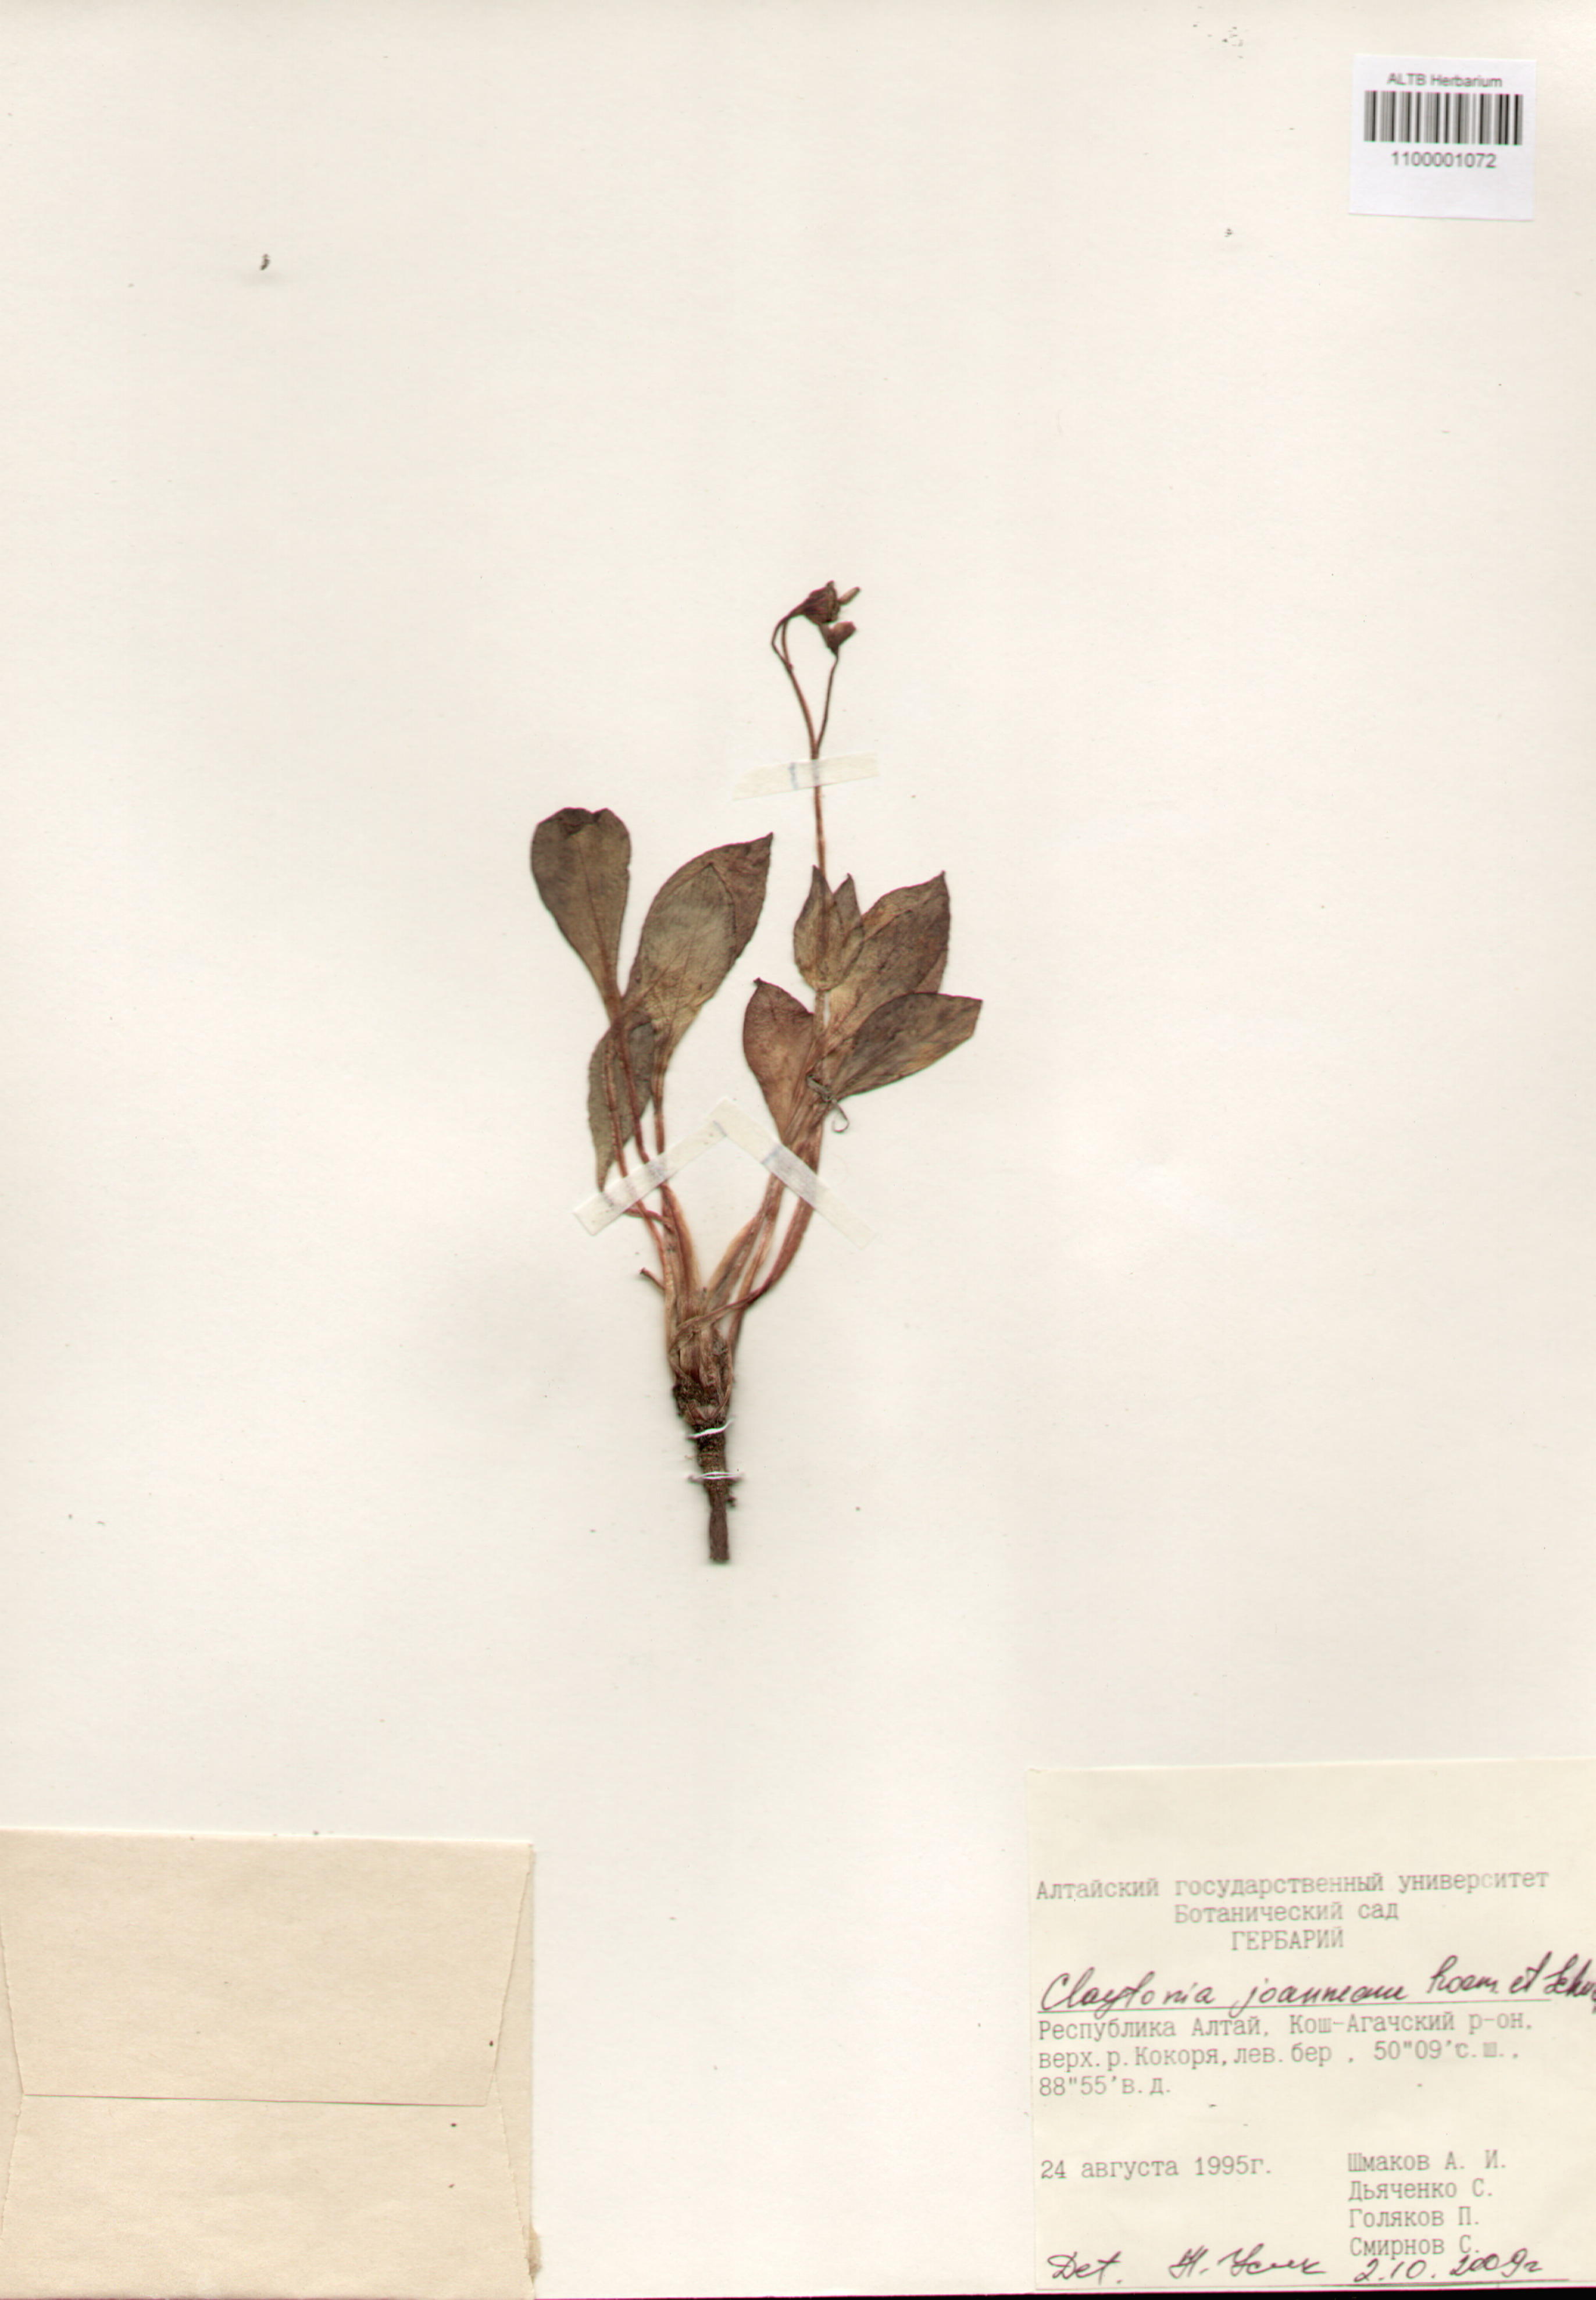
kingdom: Plantae
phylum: Tracheophyta
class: Magnoliopsida
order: Caryophyllales
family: Montiaceae
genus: Claytonia
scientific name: Claytonia joanneana
